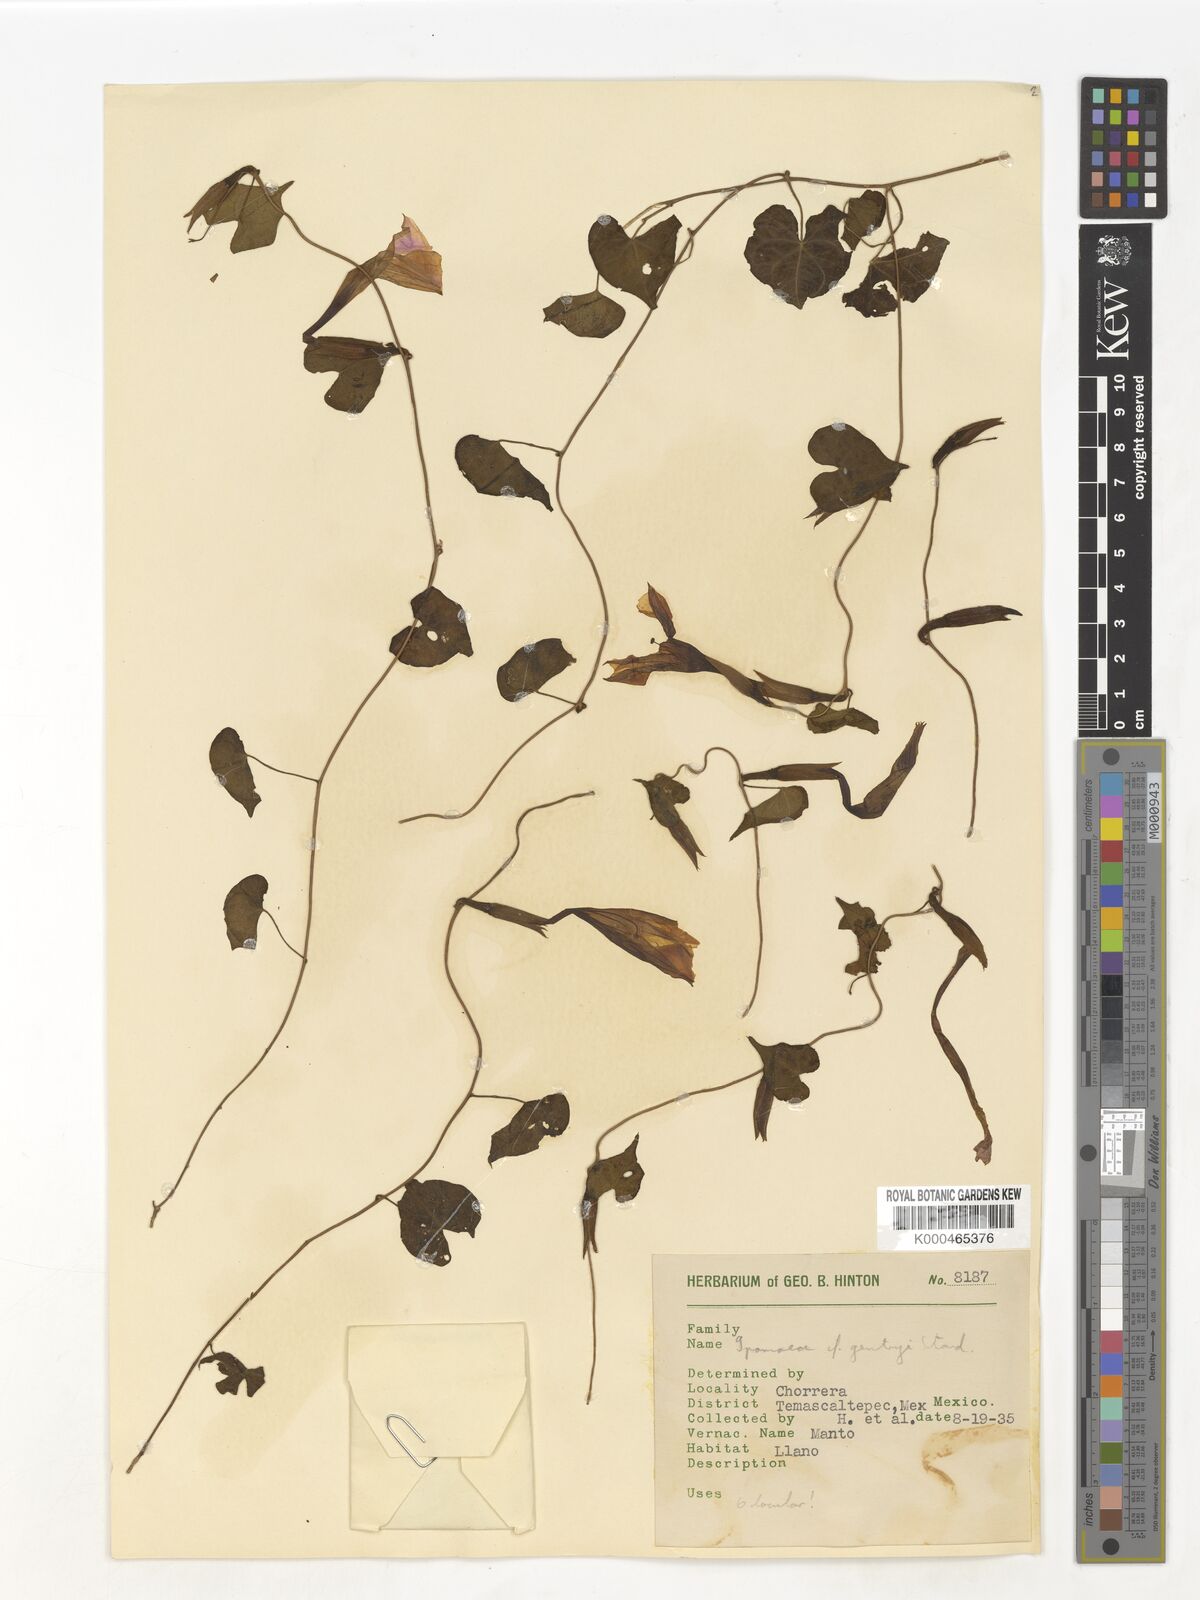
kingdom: Plantae
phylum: Tracheophyta
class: Magnoliopsida
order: Solanales
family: Convolvulaceae
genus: Ipomoea
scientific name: Ipomoea
